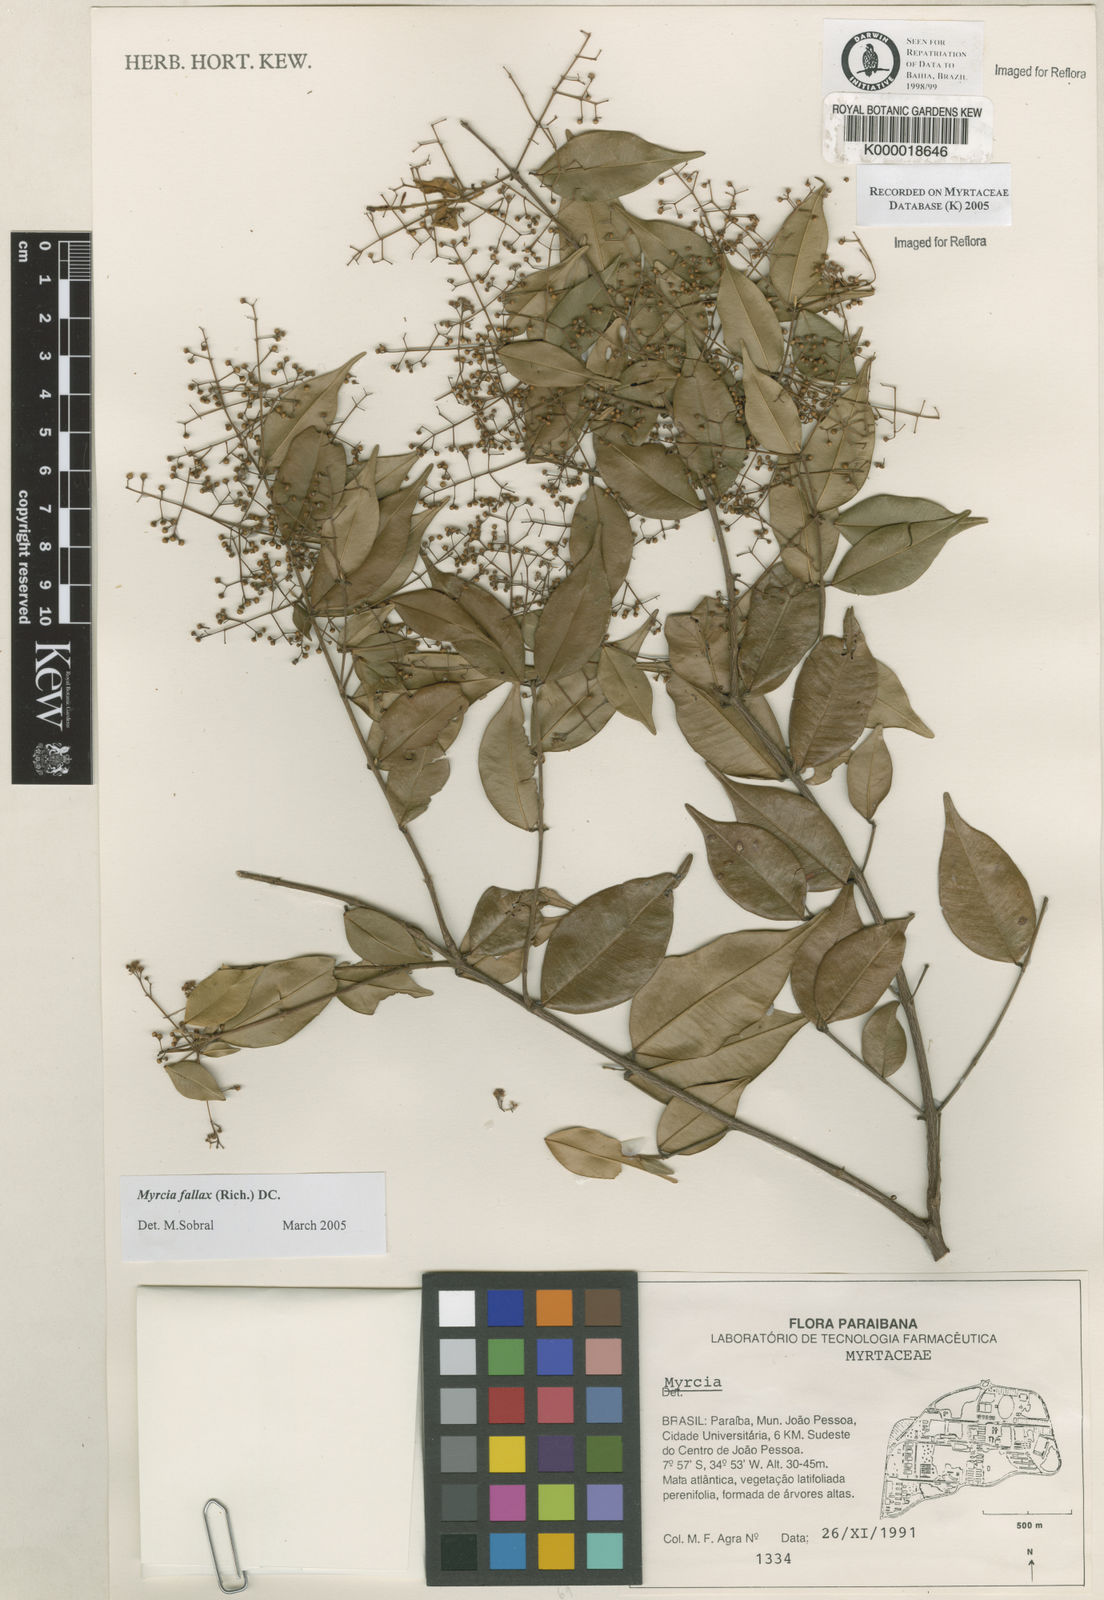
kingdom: Plantae
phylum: Tracheophyta
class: Magnoliopsida
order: Myrtales
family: Myrtaceae
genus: Myrcia
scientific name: Myrcia
